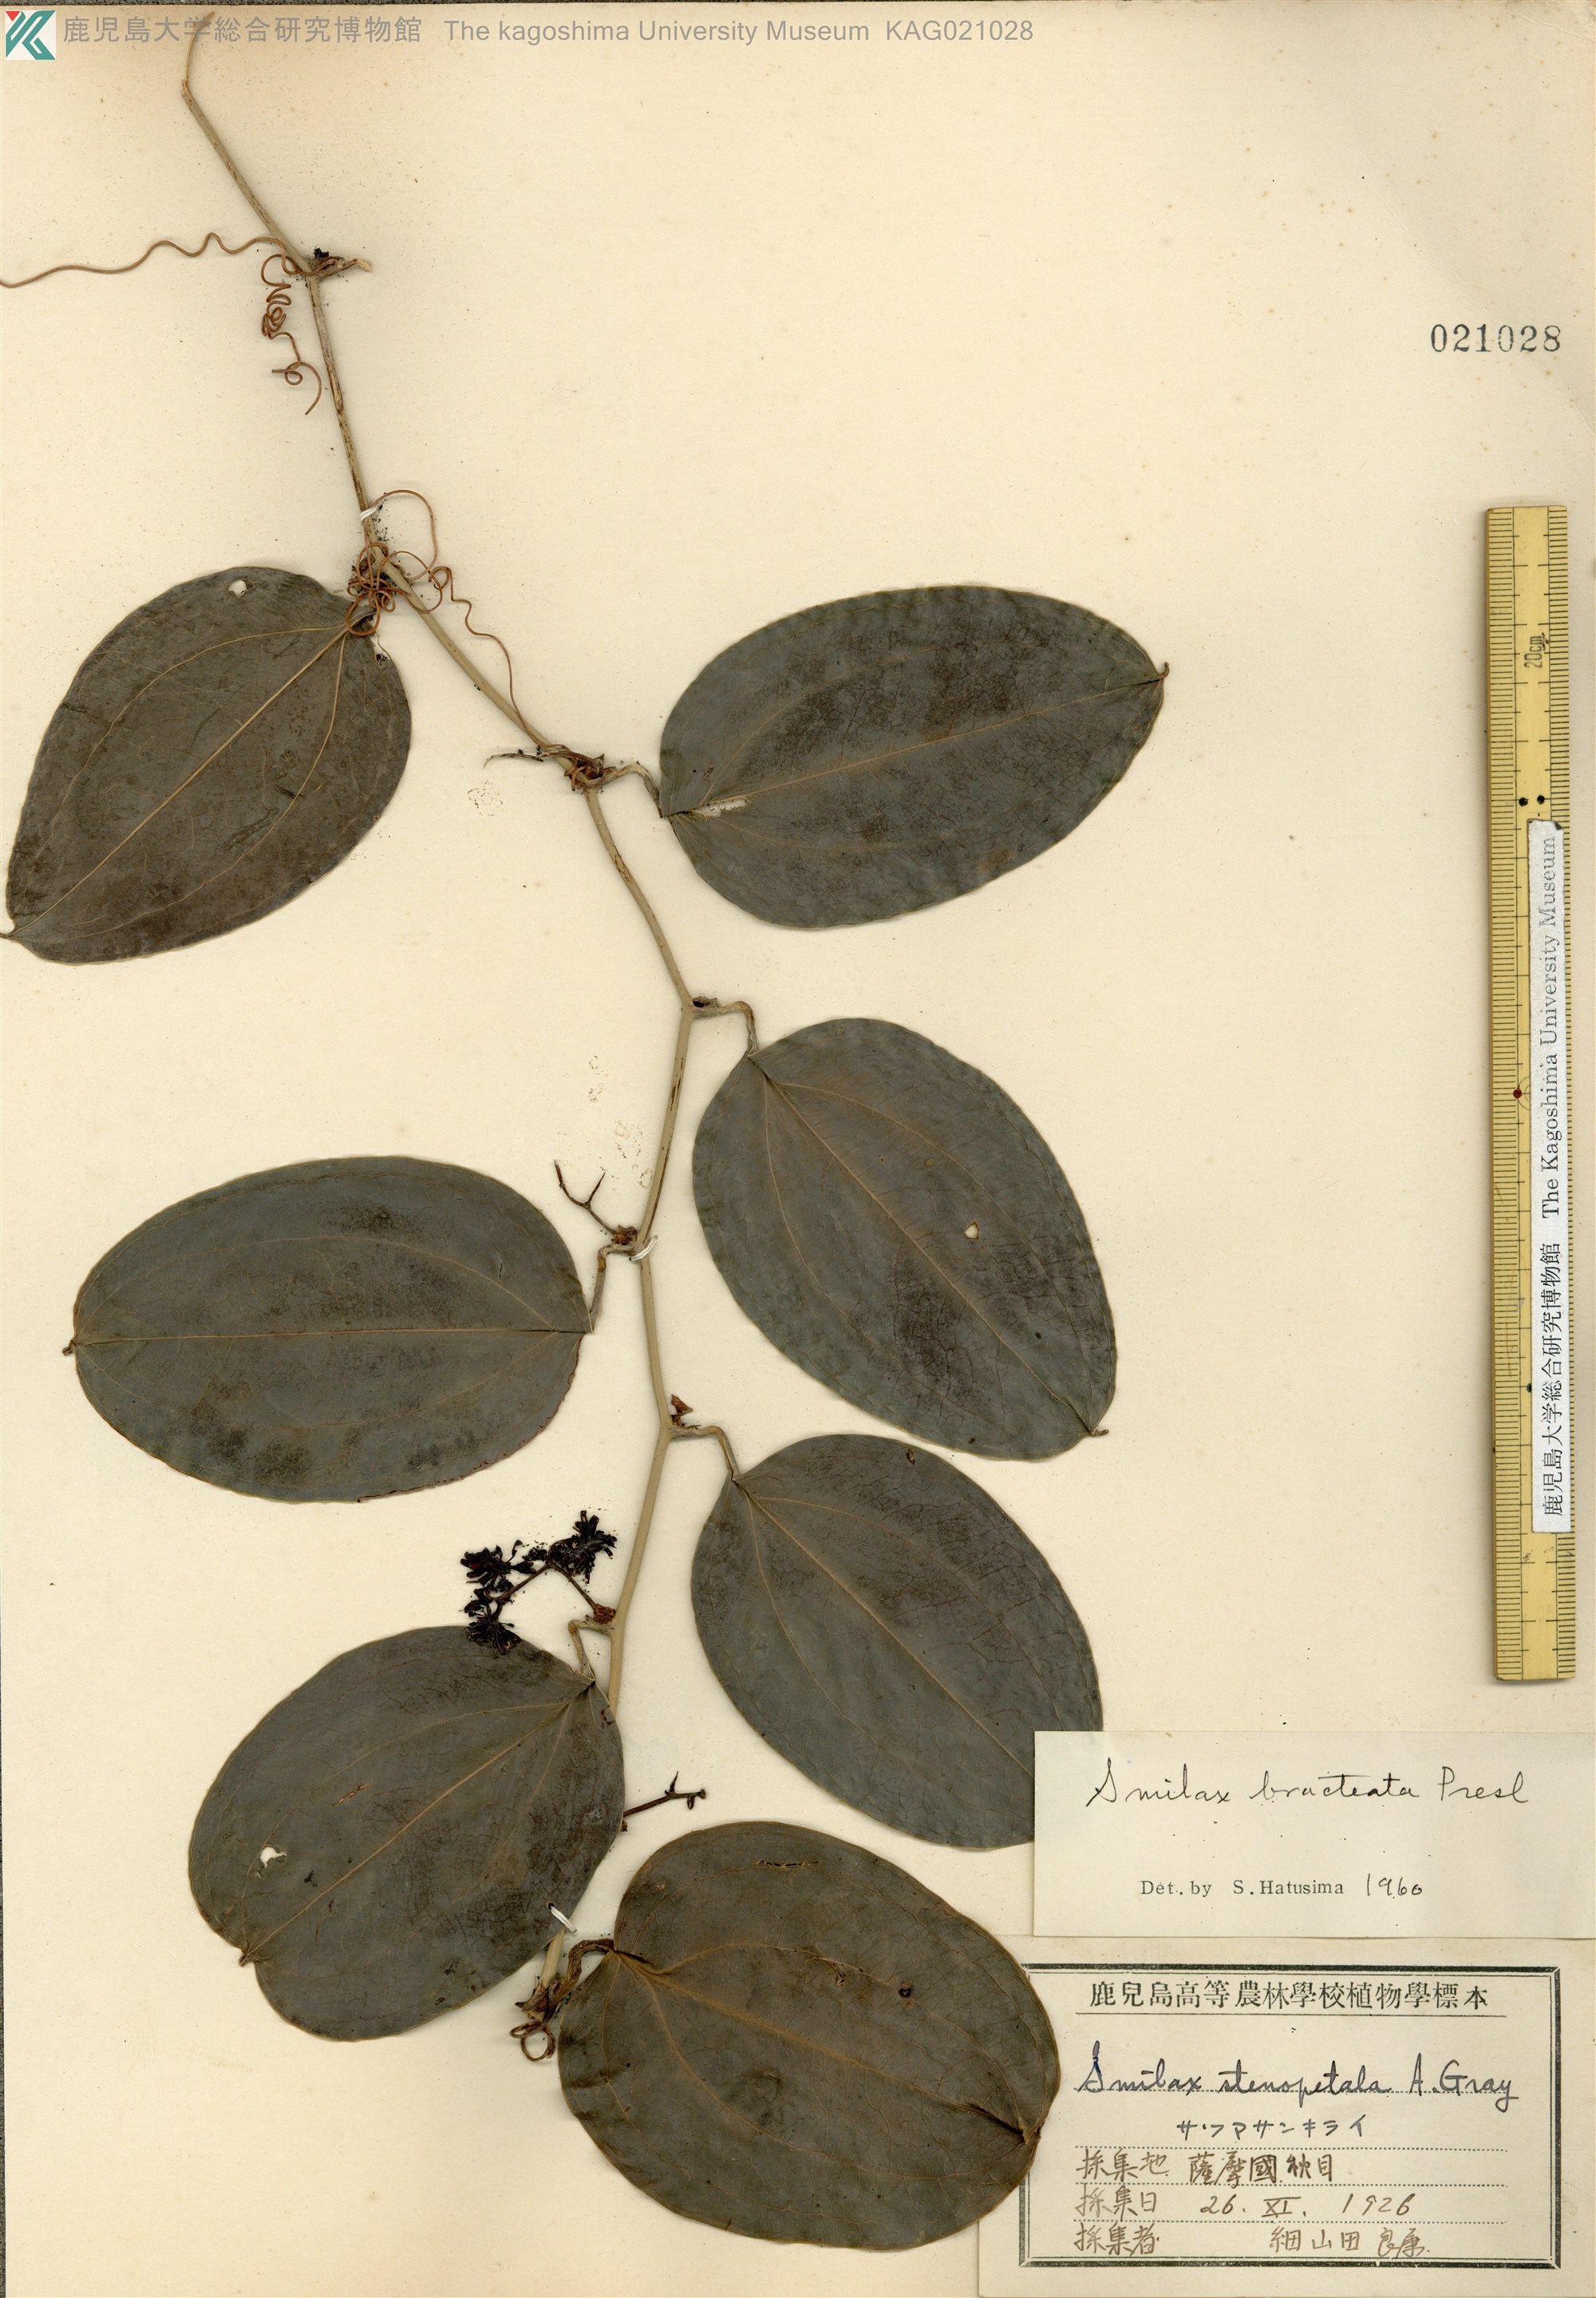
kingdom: Plantae
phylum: Tracheophyta
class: Liliopsida
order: Liliales
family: Smilacaceae
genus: Smilax
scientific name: Smilax bracteata
